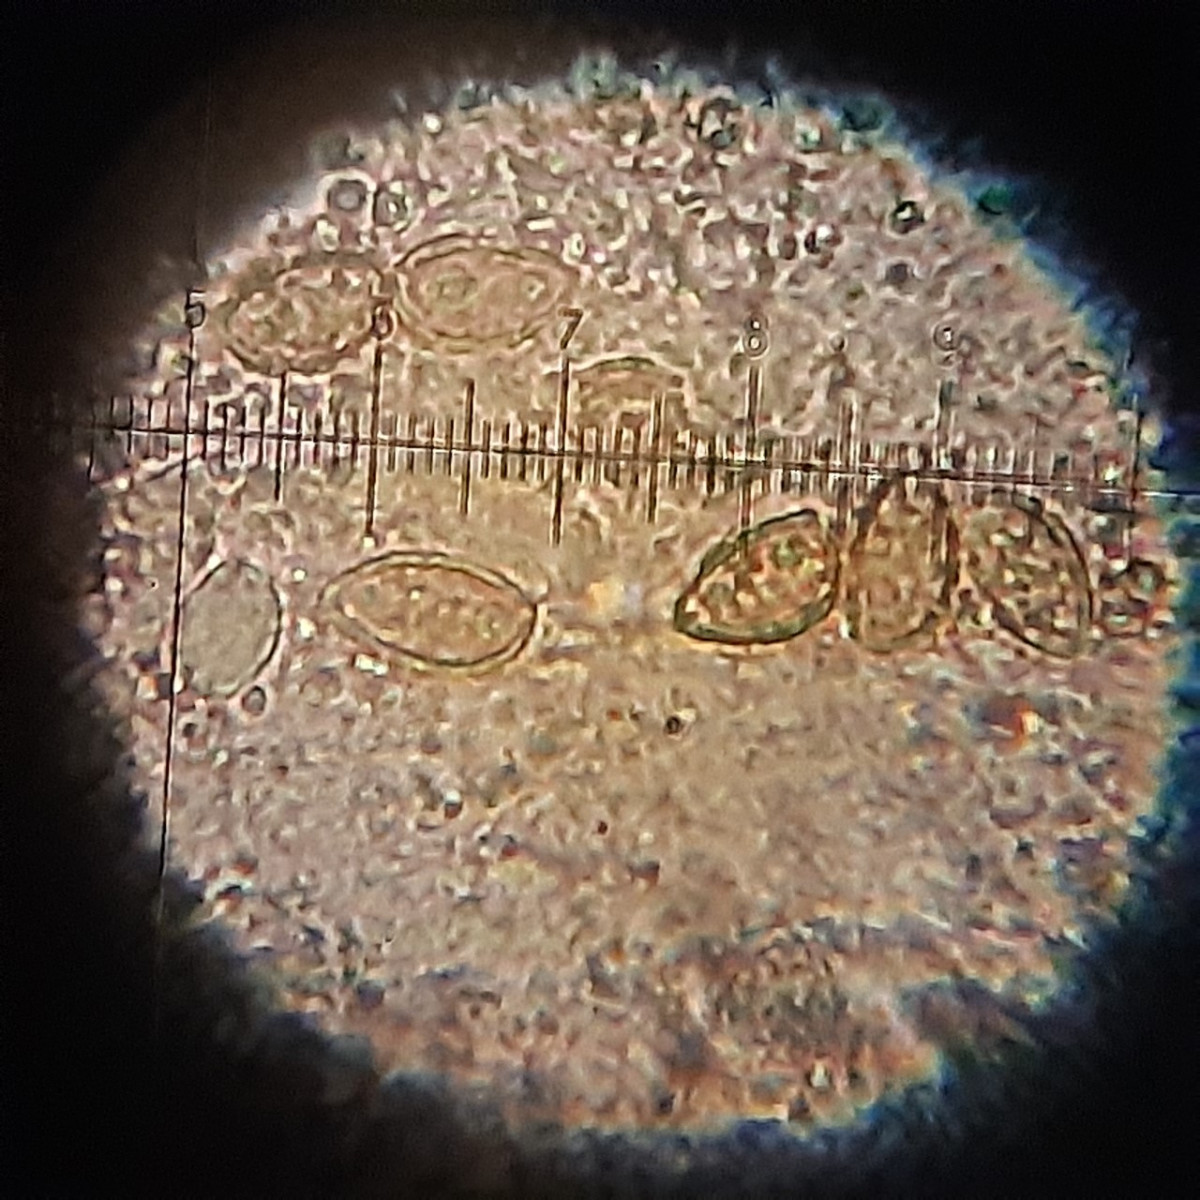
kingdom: Fungi
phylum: Basidiomycota
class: Agaricomycetes
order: Cantharellales
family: Hydnaceae
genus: Hydnum
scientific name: Hydnum
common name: pigsvamp
